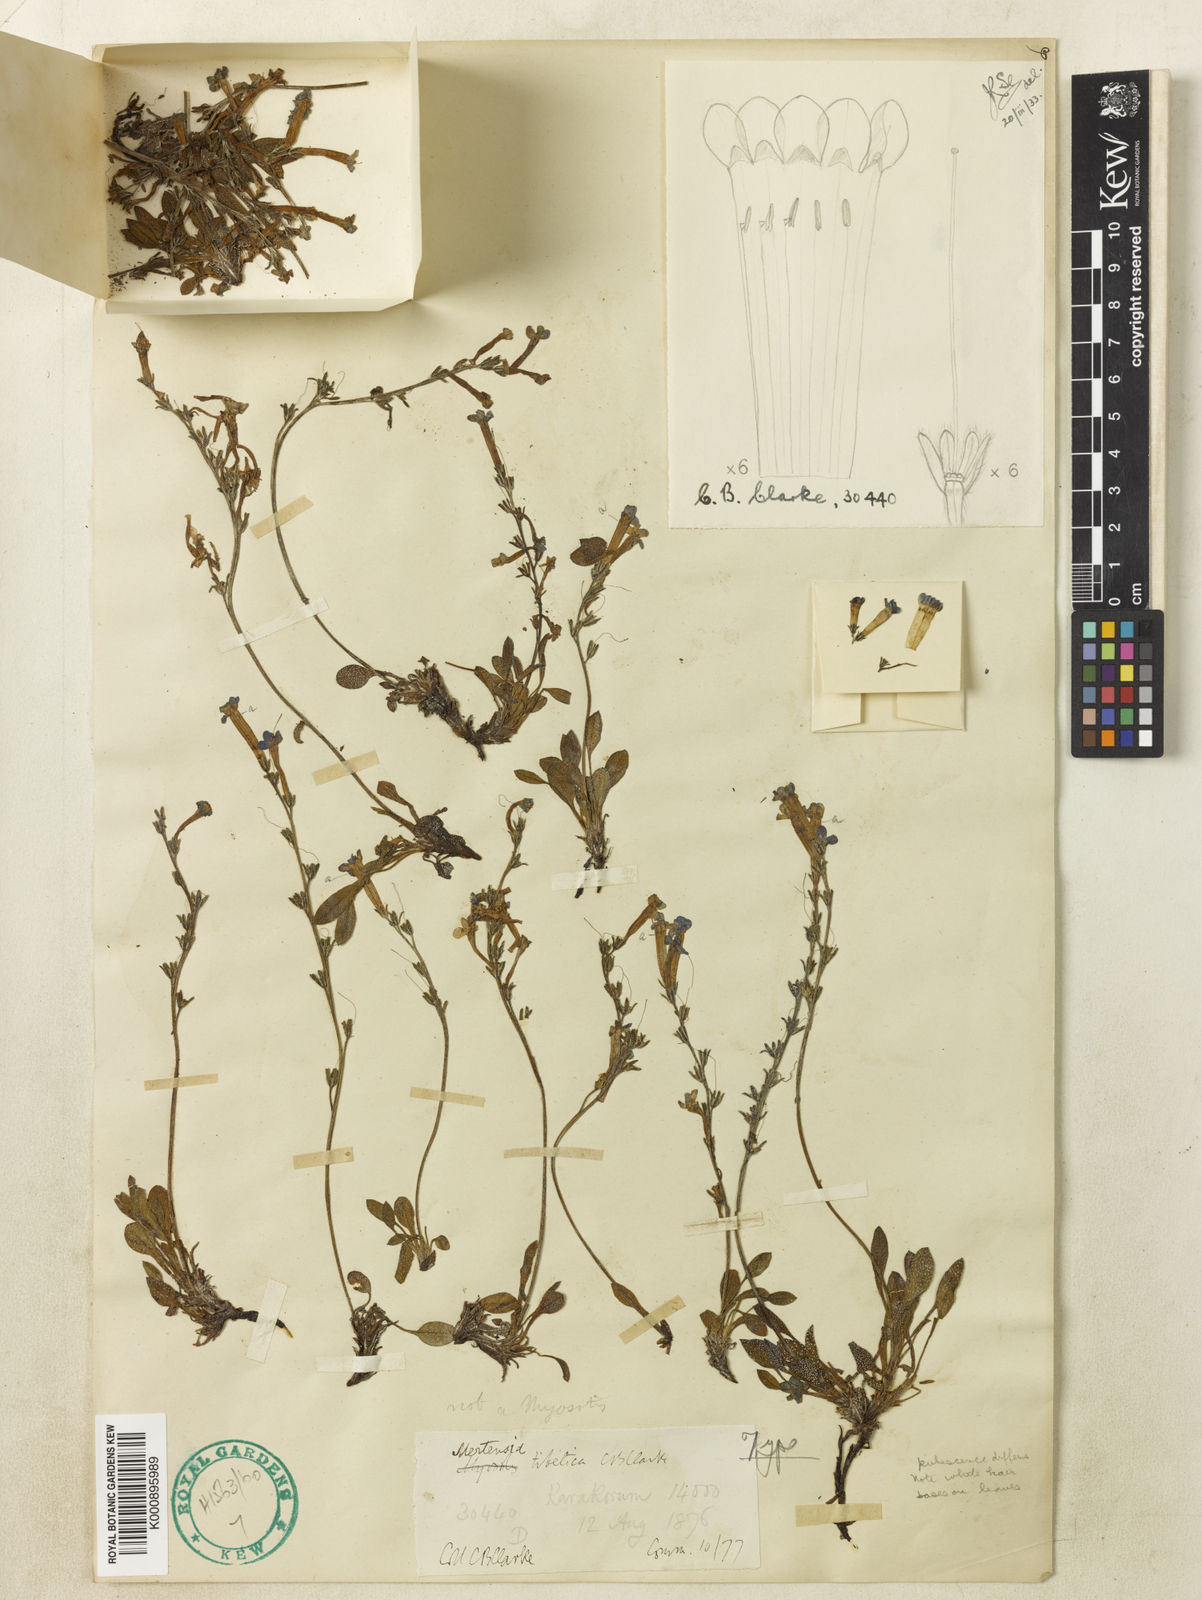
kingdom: Plantae
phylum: Tracheophyta
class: Magnoliopsida
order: Boraginales
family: Boraginaceae
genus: Decalepidanthus
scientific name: Decalepidanthus primuloides
